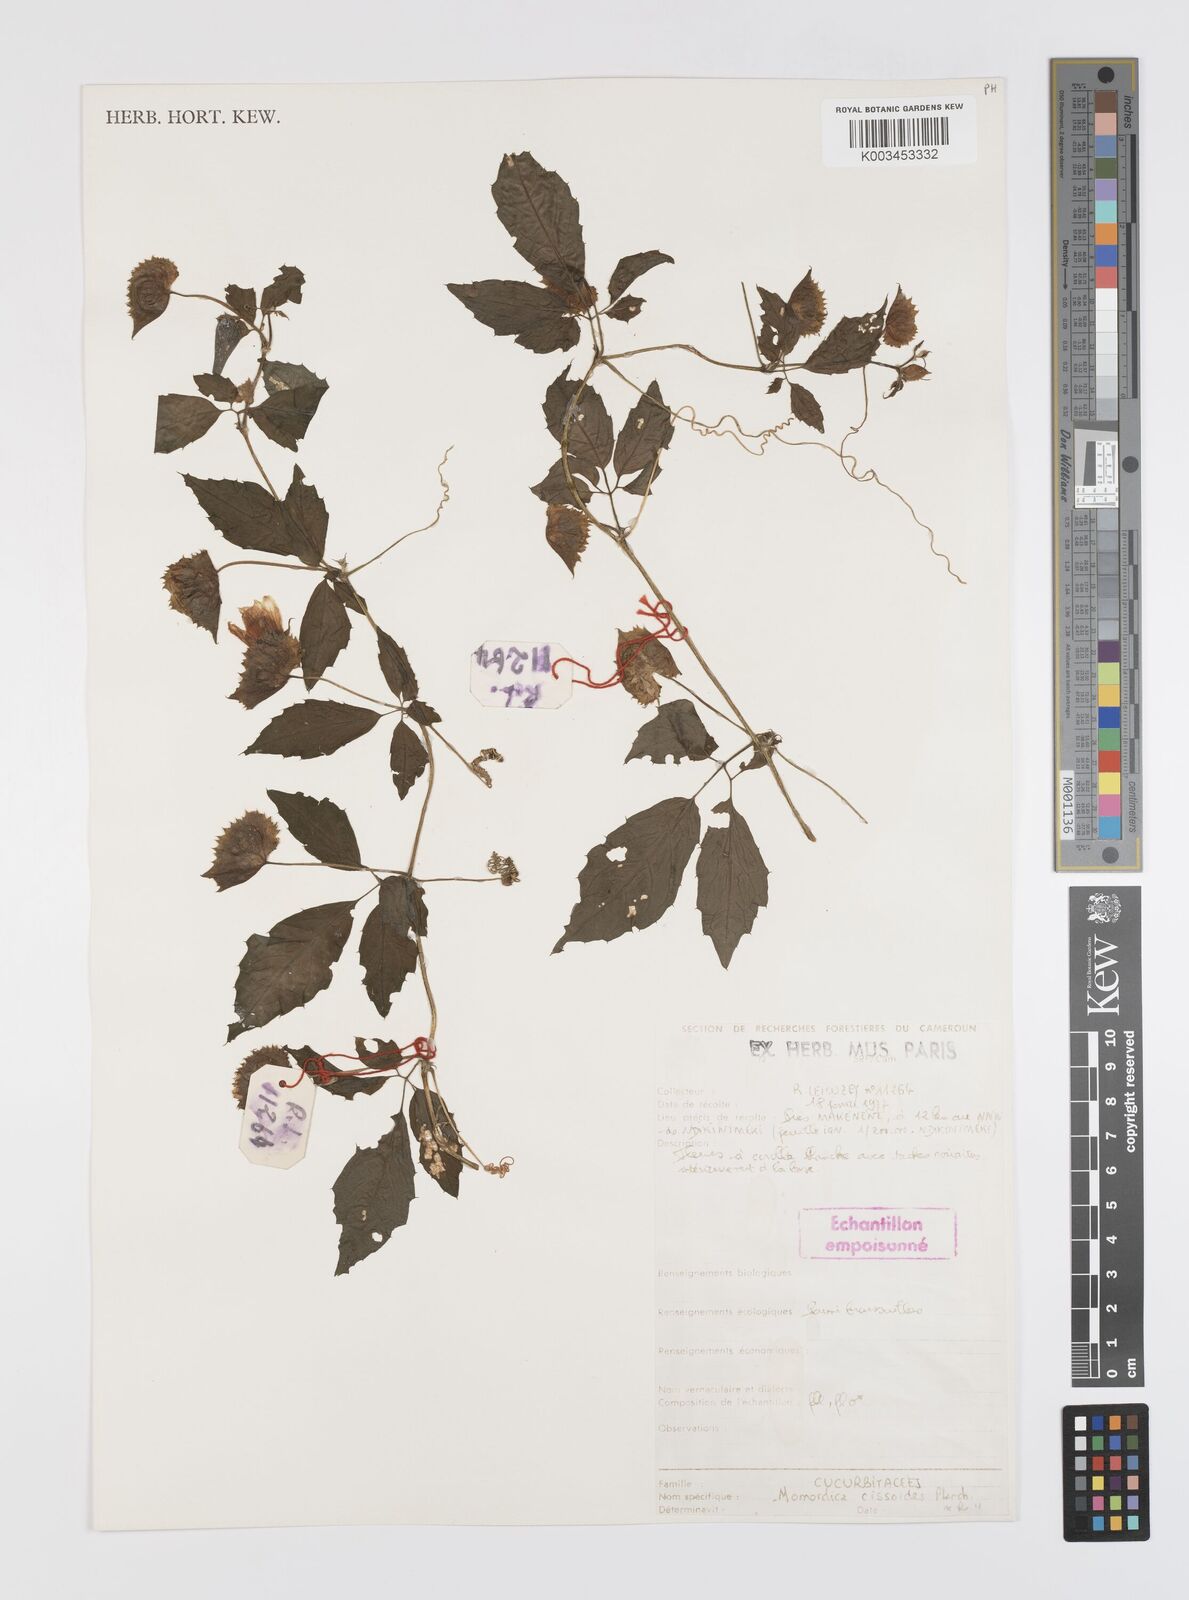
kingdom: Plantae
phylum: Tracheophyta
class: Magnoliopsida
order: Cucurbitales
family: Cucurbitaceae
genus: Momordica
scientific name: Momordica cissoides
